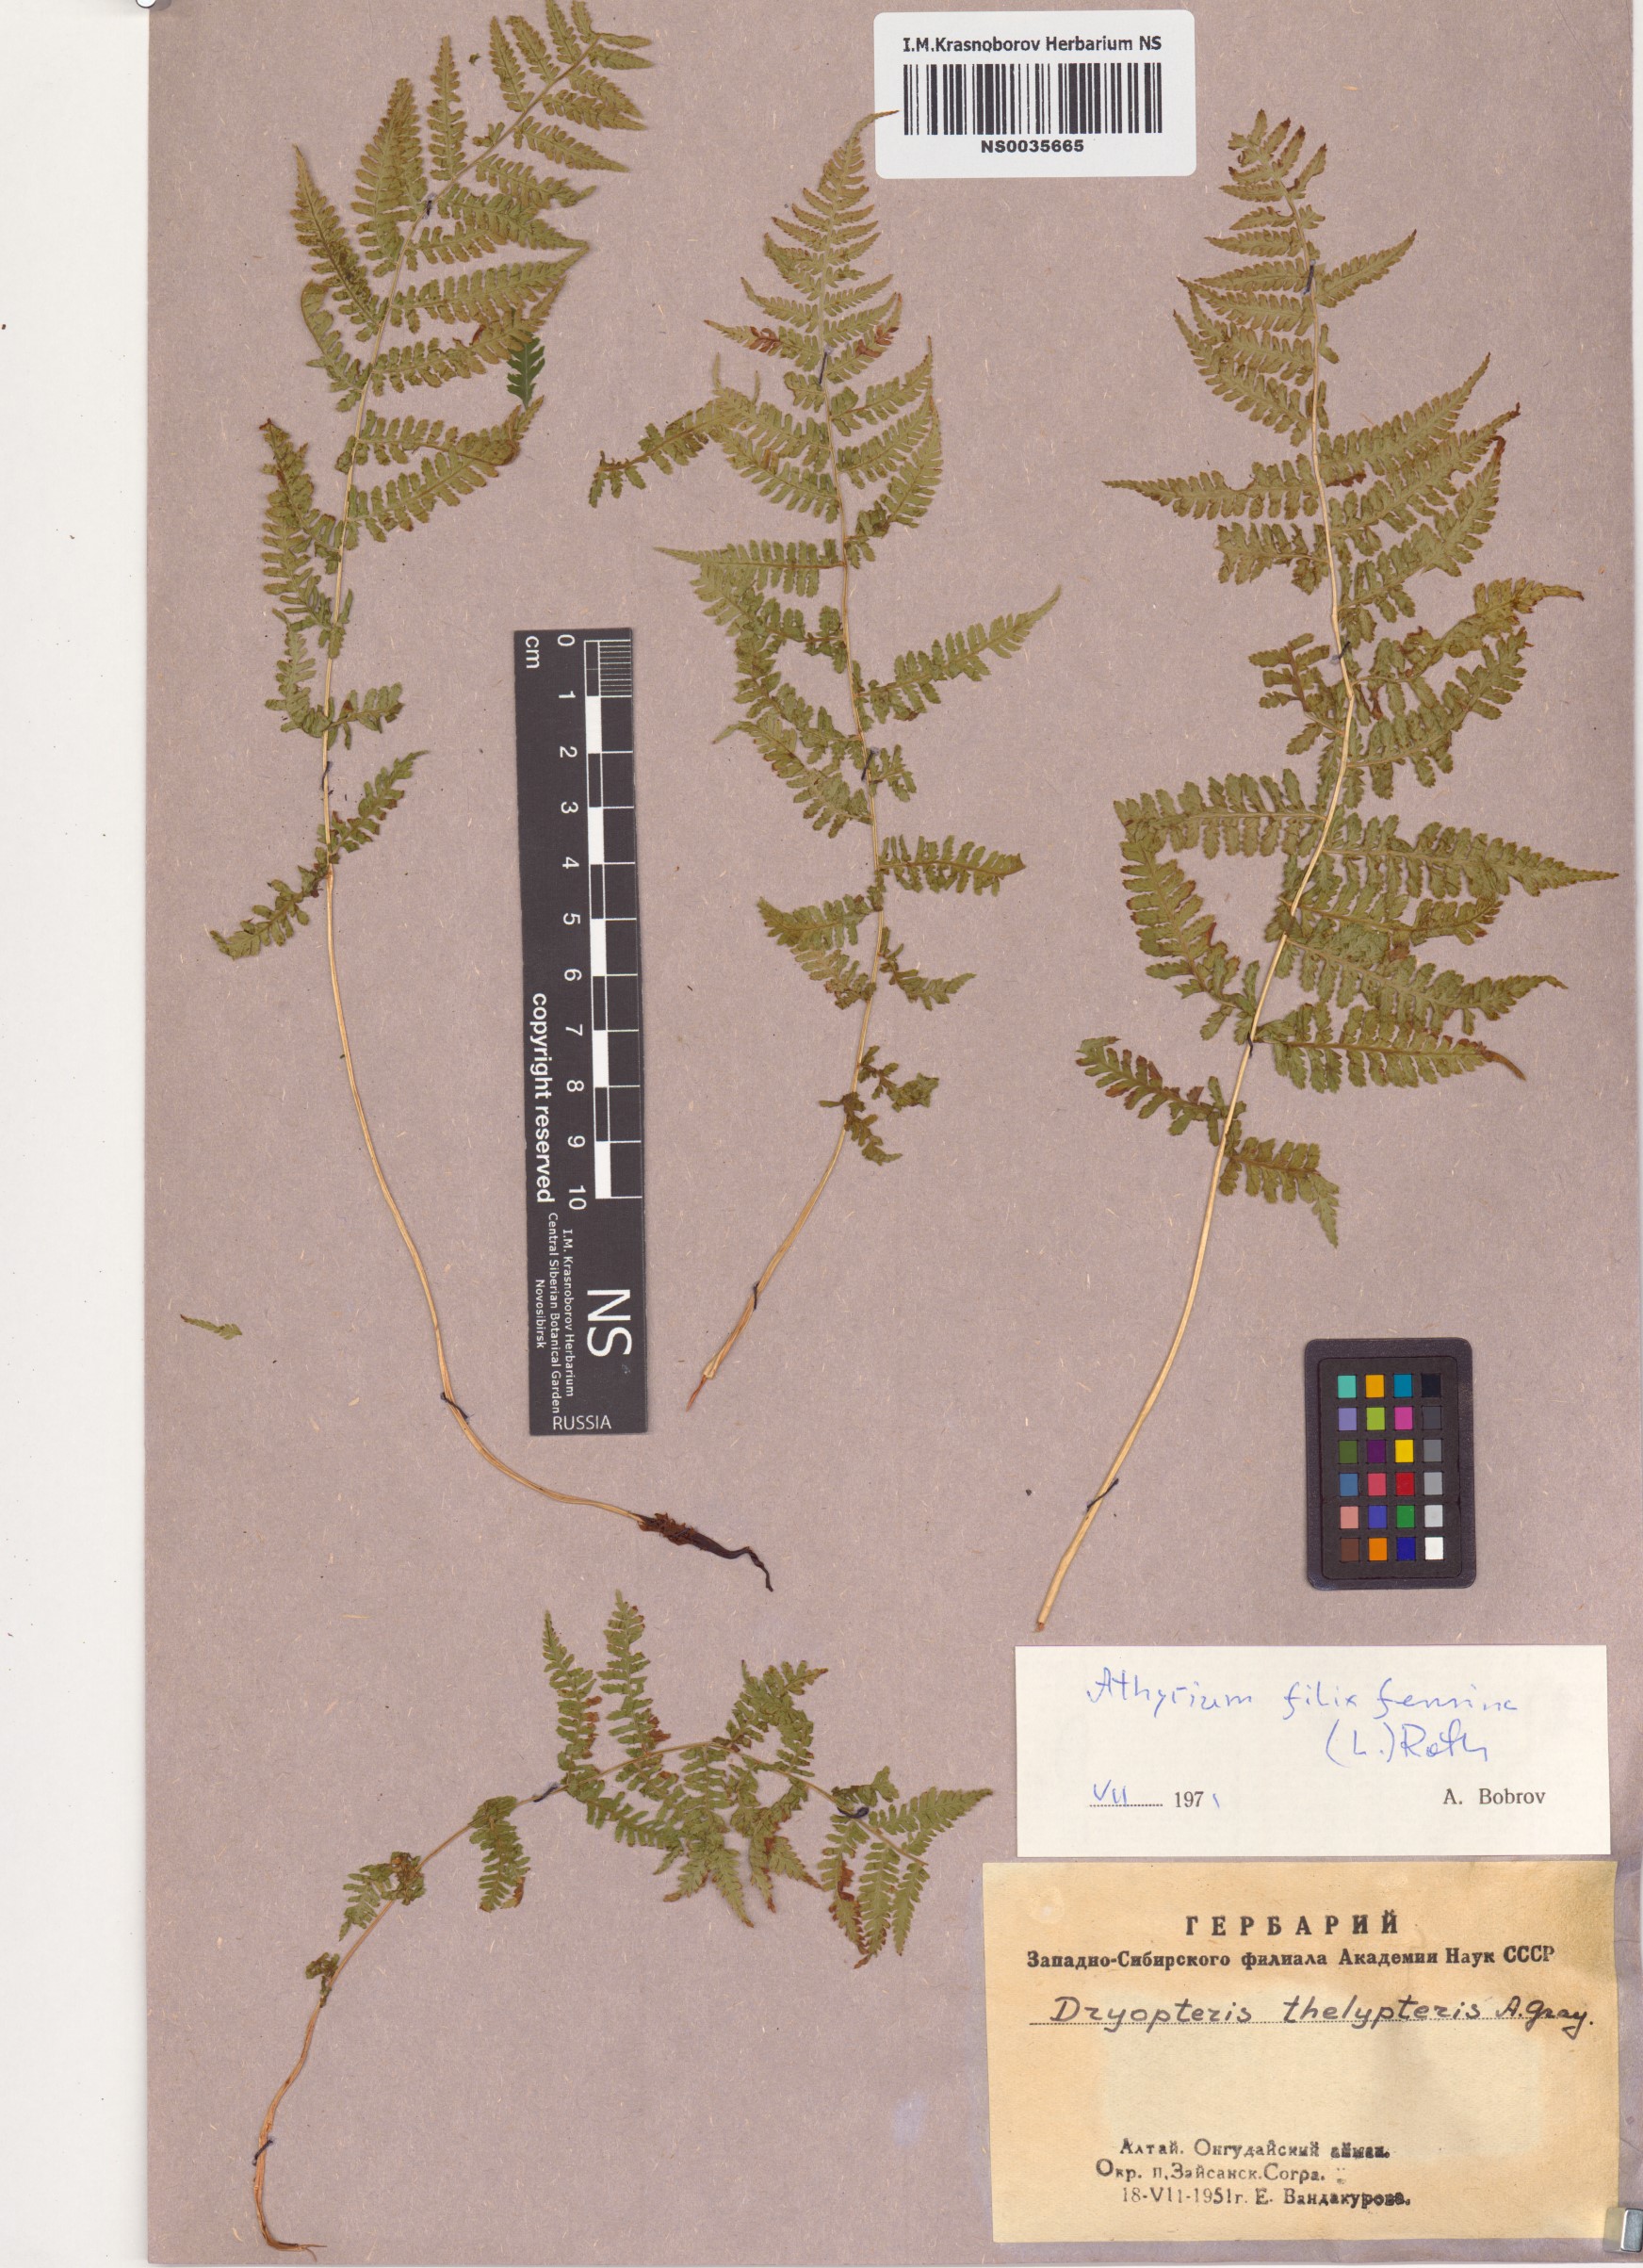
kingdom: Plantae
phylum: Tracheophyta
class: Polypodiopsida
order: Polypodiales
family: Athyriaceae
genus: Athyrium
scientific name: Athyrium filix-femina
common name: Lady fern
